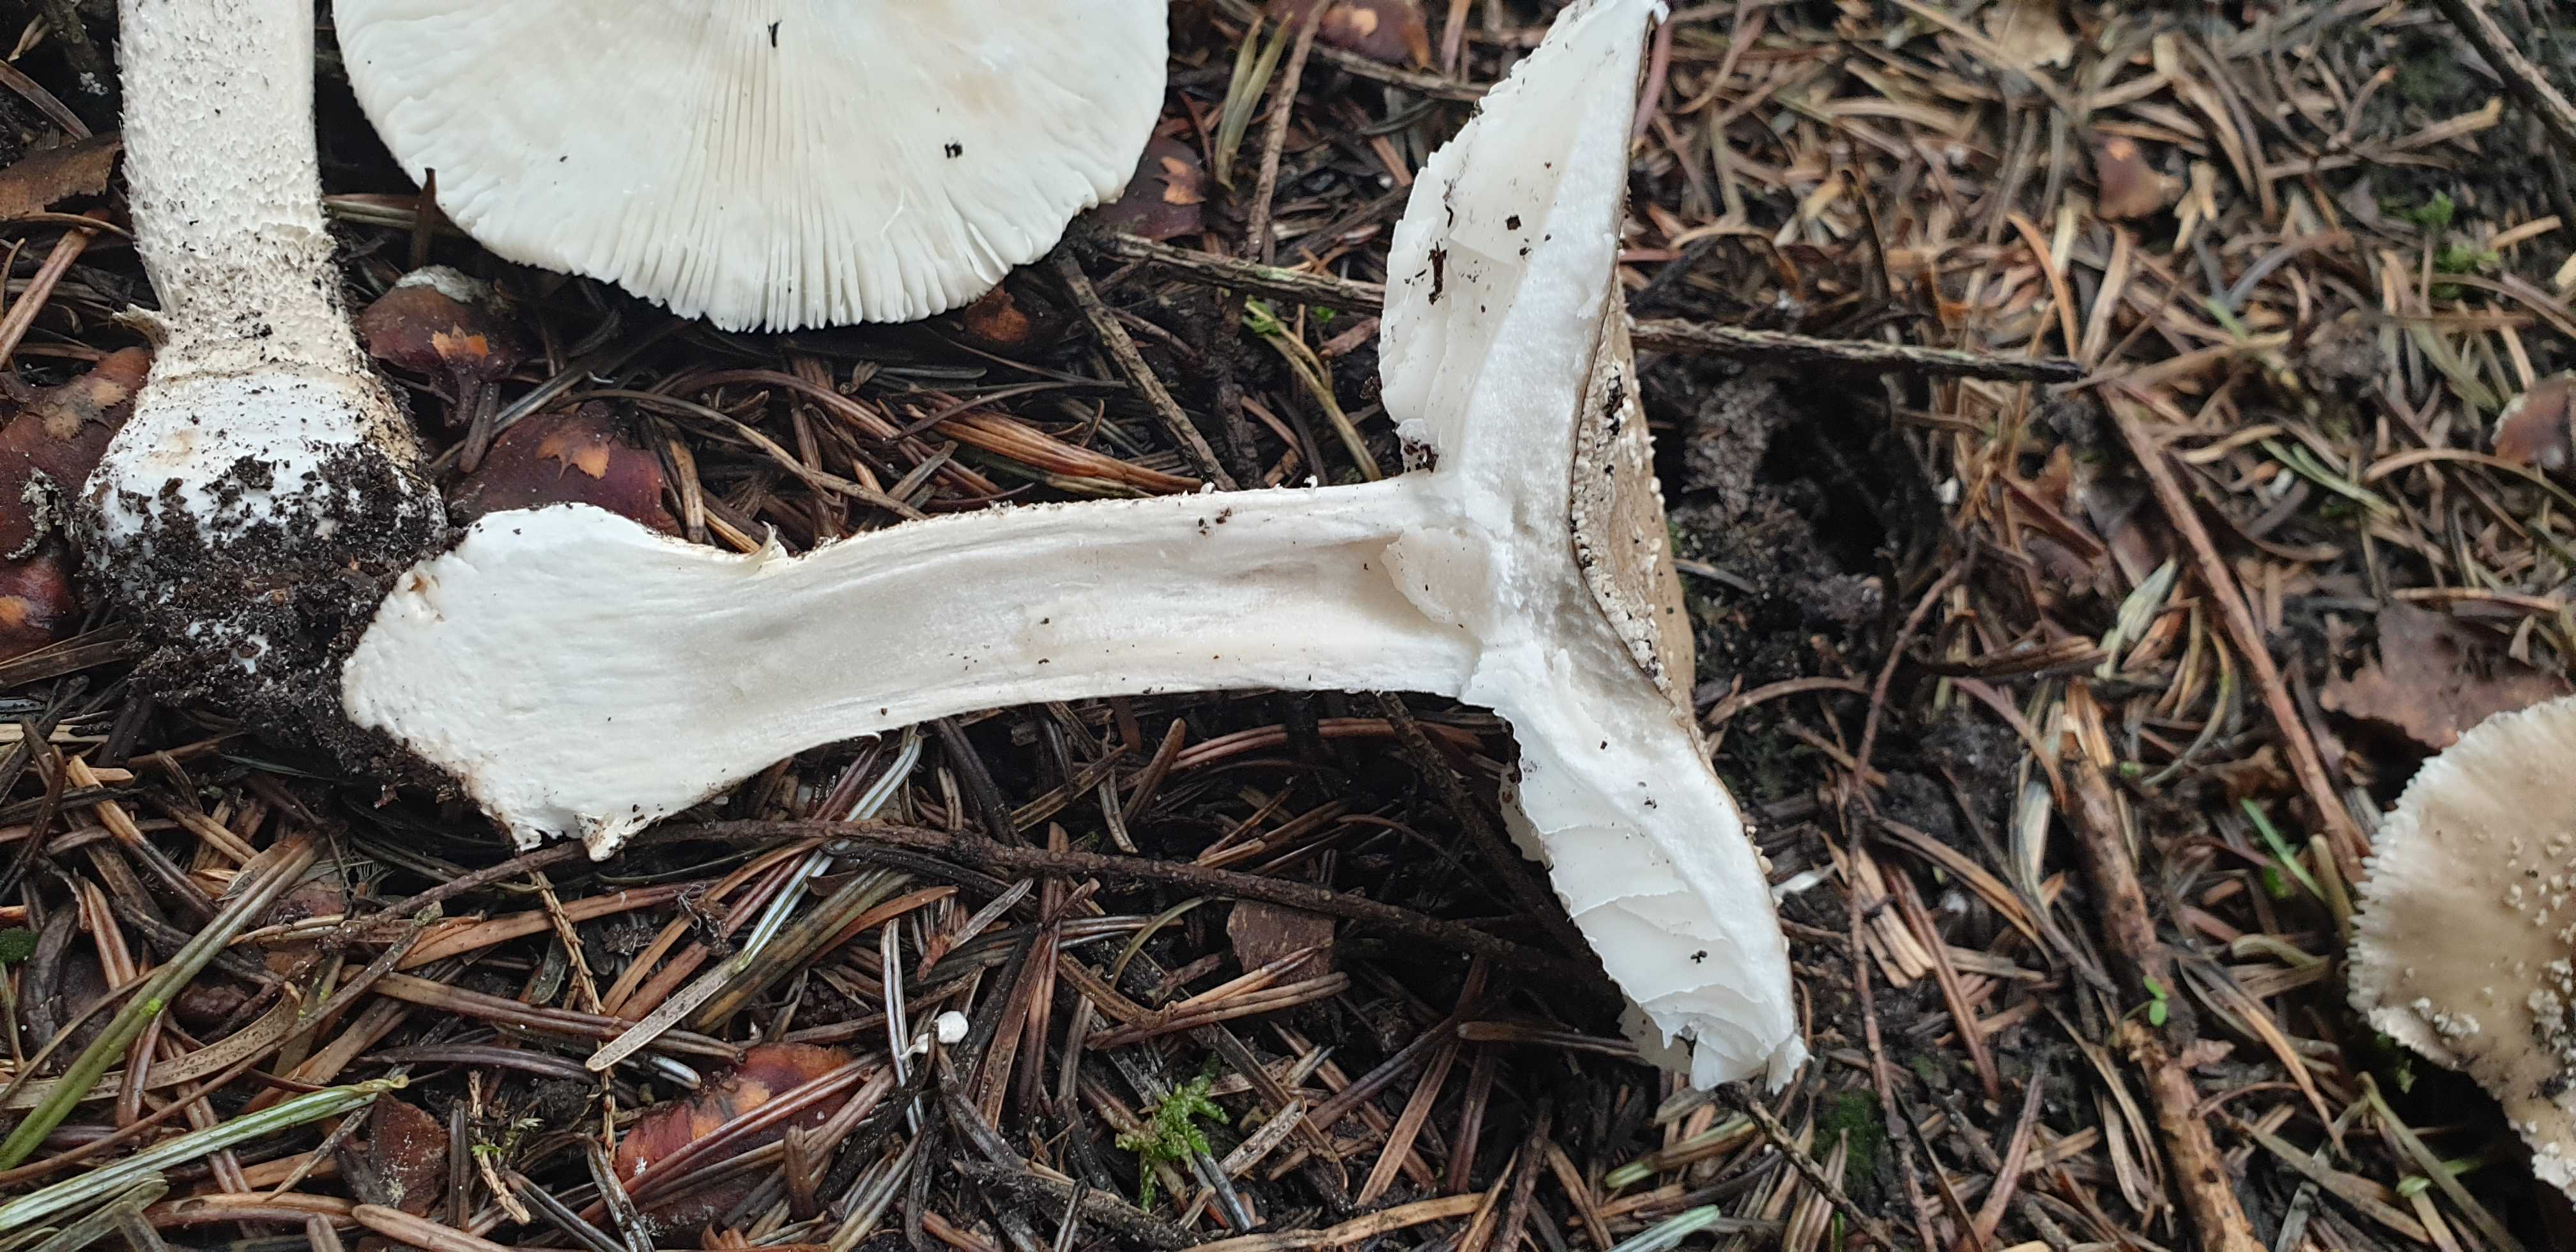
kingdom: Fungi
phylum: Basidiomycota
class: Agaricomycetes
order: Agaricales
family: Amanitaceae
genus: Amanita
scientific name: Amanita
